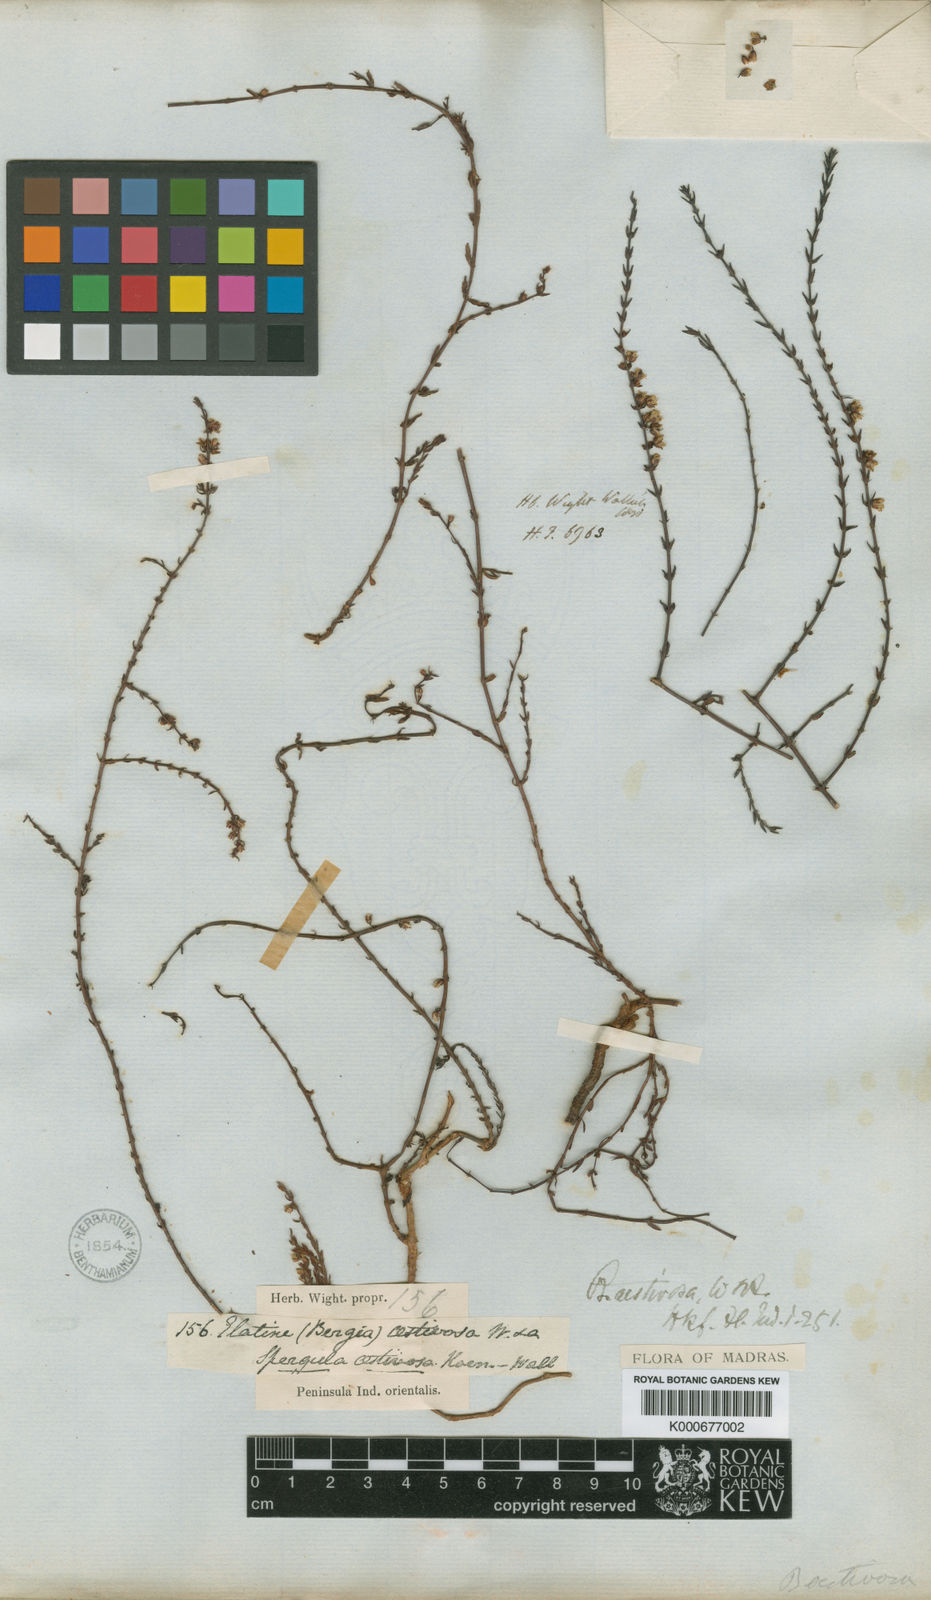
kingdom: Plantae
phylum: Tracheophyta
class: Magnoliopsida
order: Malpighiales
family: Elatinaceae
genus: Bergia
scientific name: Bergia aestivosa
